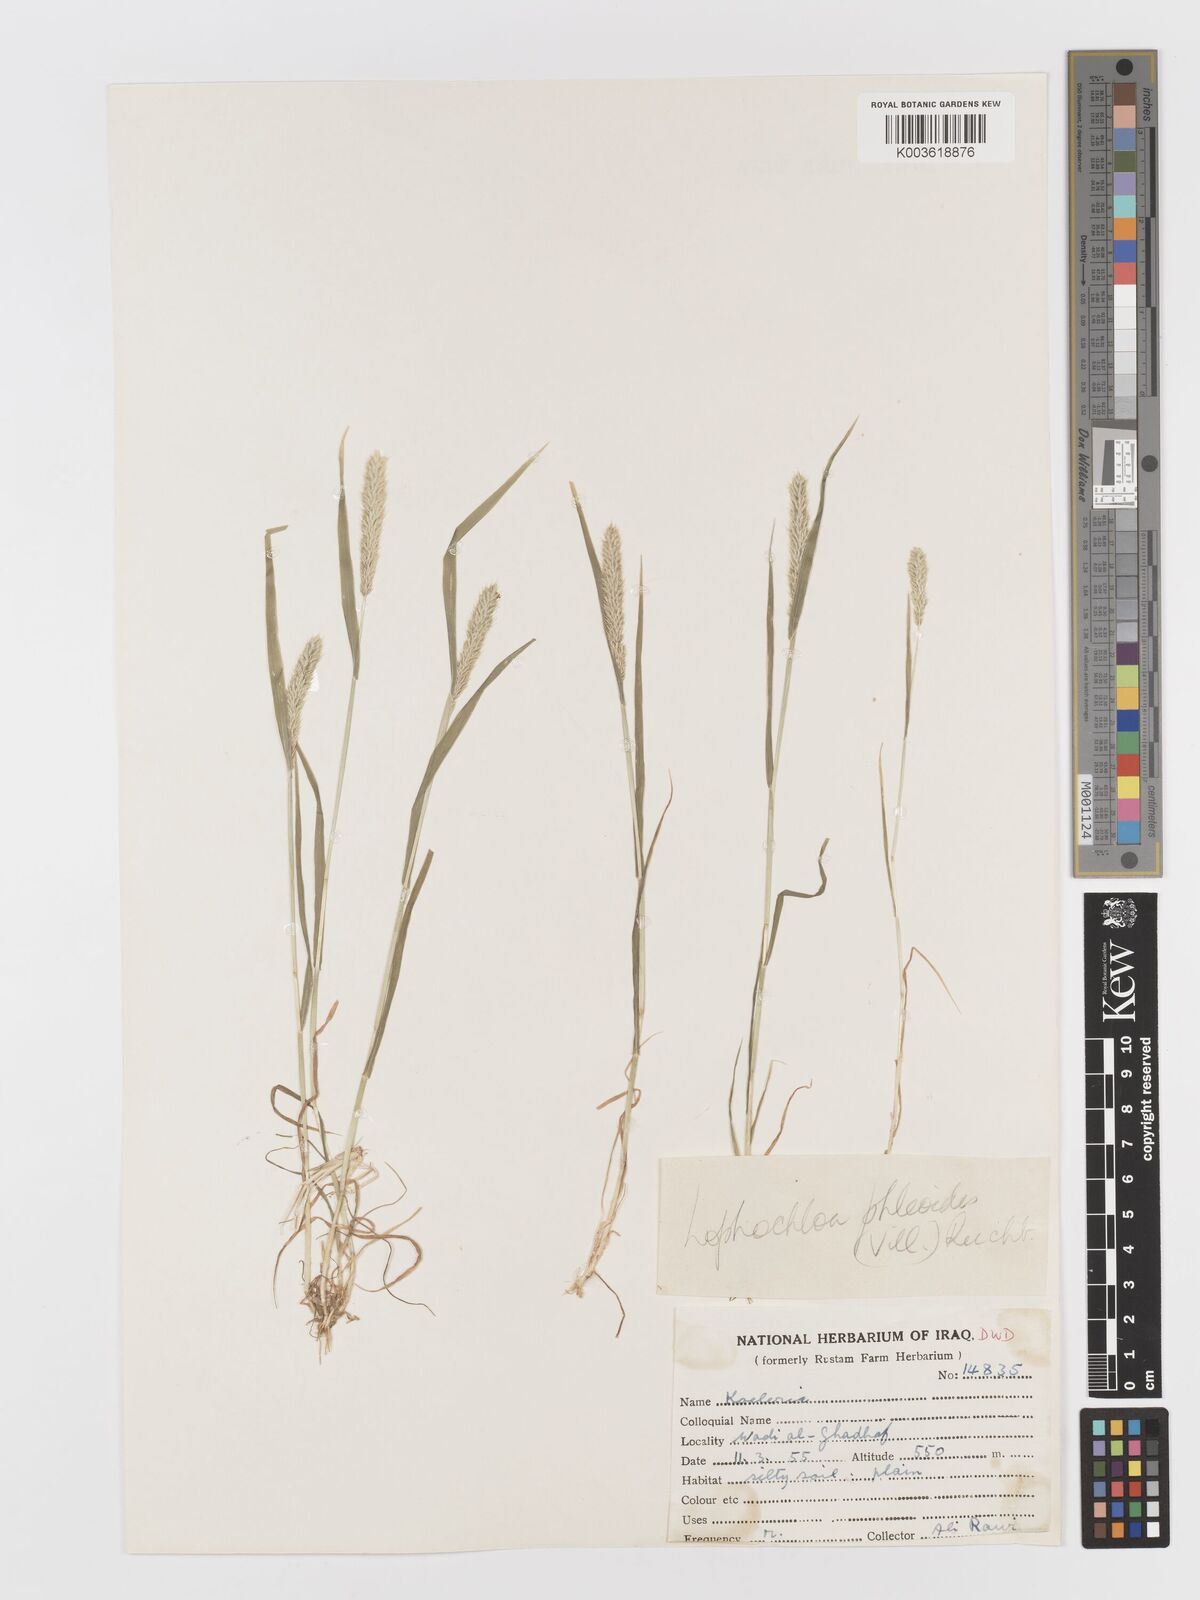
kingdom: Plantae
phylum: Tracheophyta
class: Liliopsida
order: Poales
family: Poaceae
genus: Rostraria
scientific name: Rostraria cristata
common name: Mediterranean hair-grass
